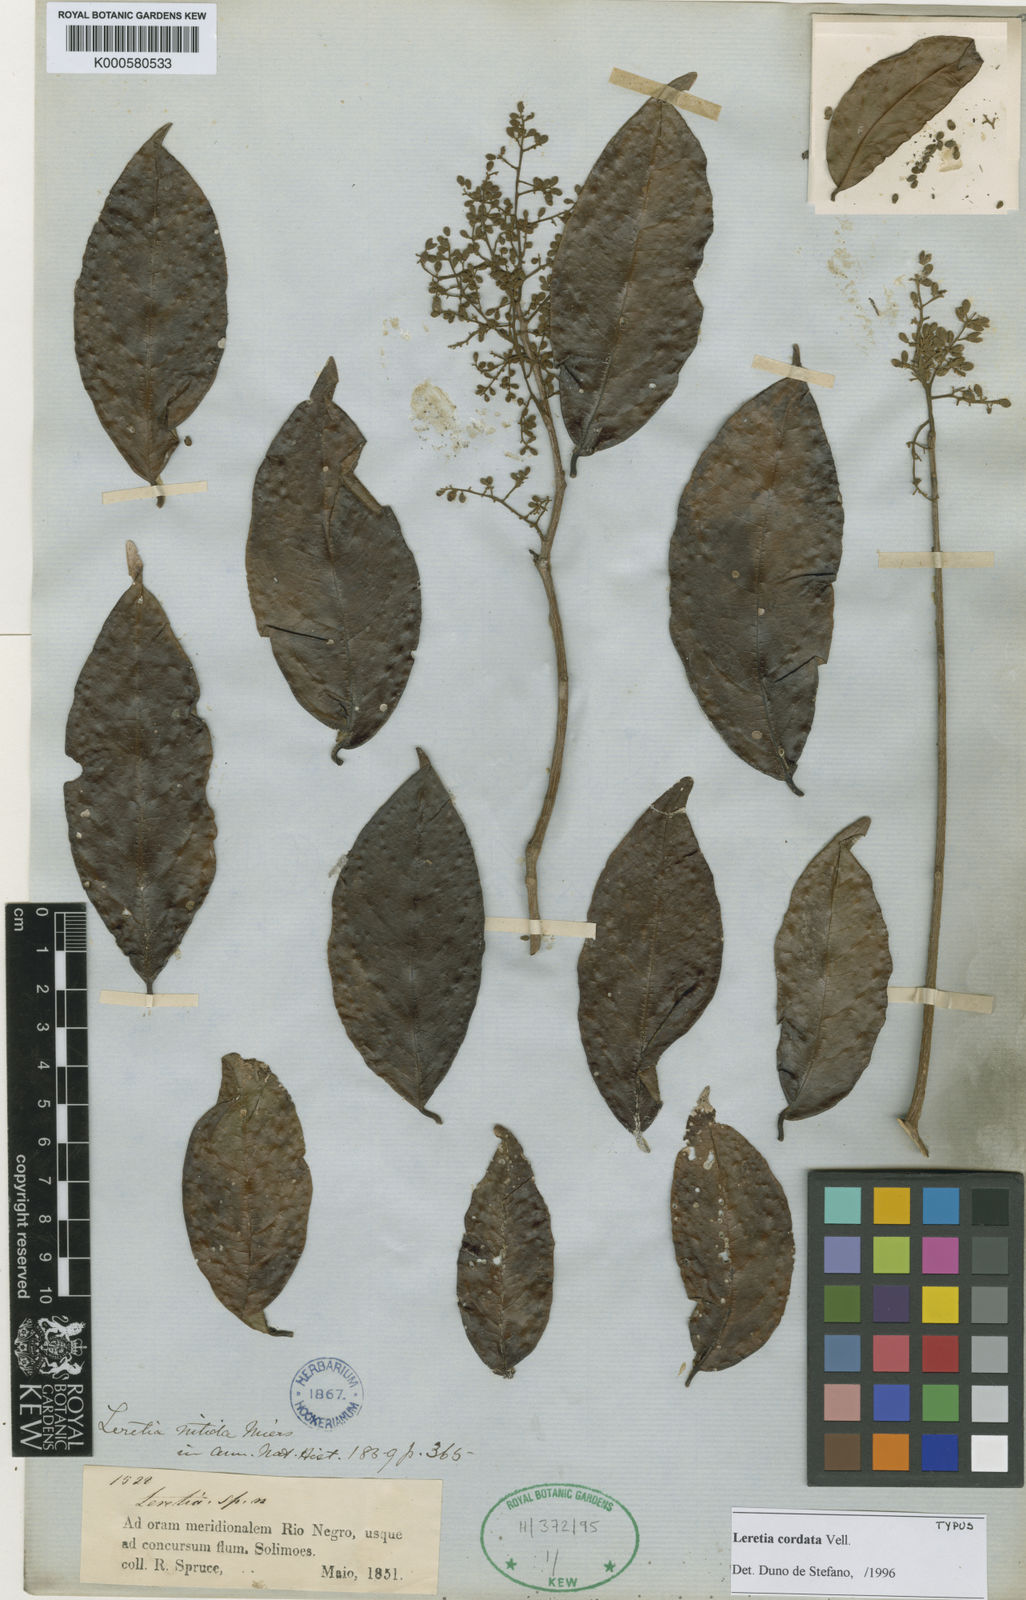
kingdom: Plantae
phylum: Tracheophyta
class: Magnoliopsida
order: Icacinales
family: Icacinaceae
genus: Leretia
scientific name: Leretia cordata
